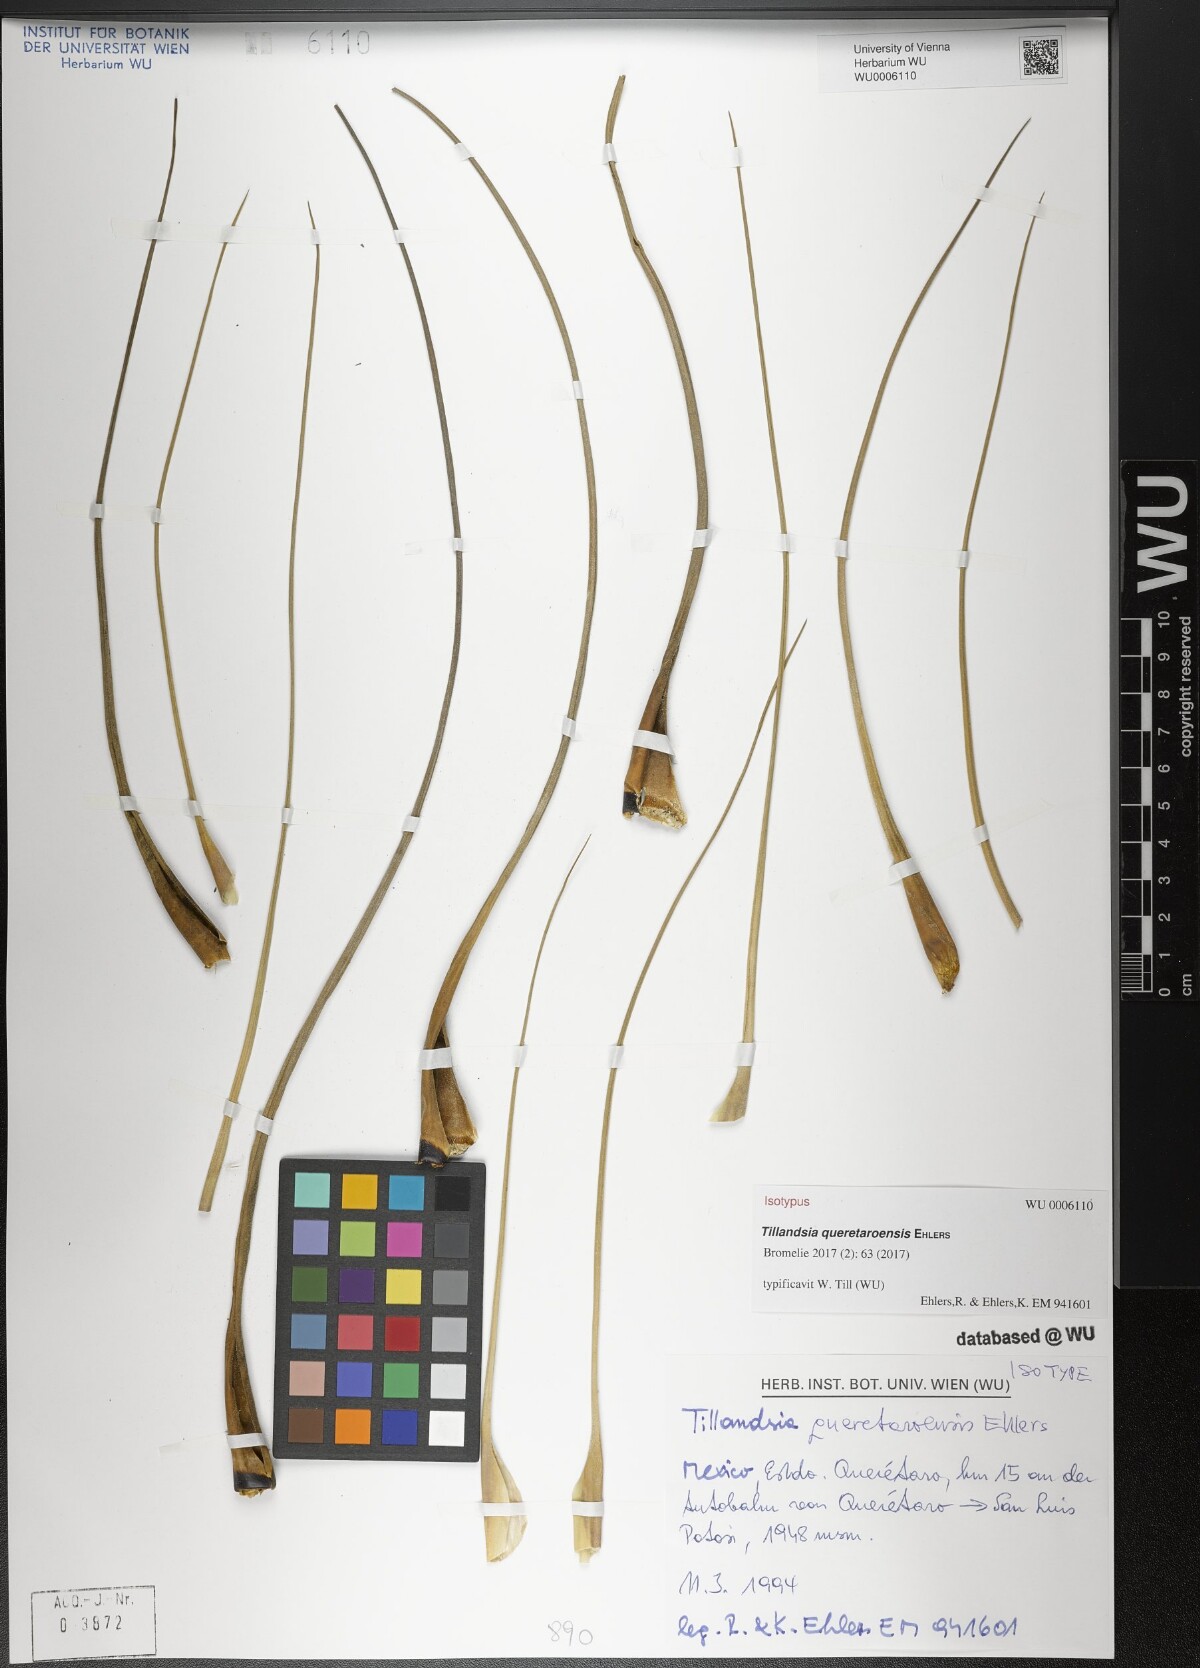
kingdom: Plantae
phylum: Tracheophyta
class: Liliopsida
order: Poales
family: Bromeliaceae
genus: Tillandsia
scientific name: Tillandsia queretaroensis
